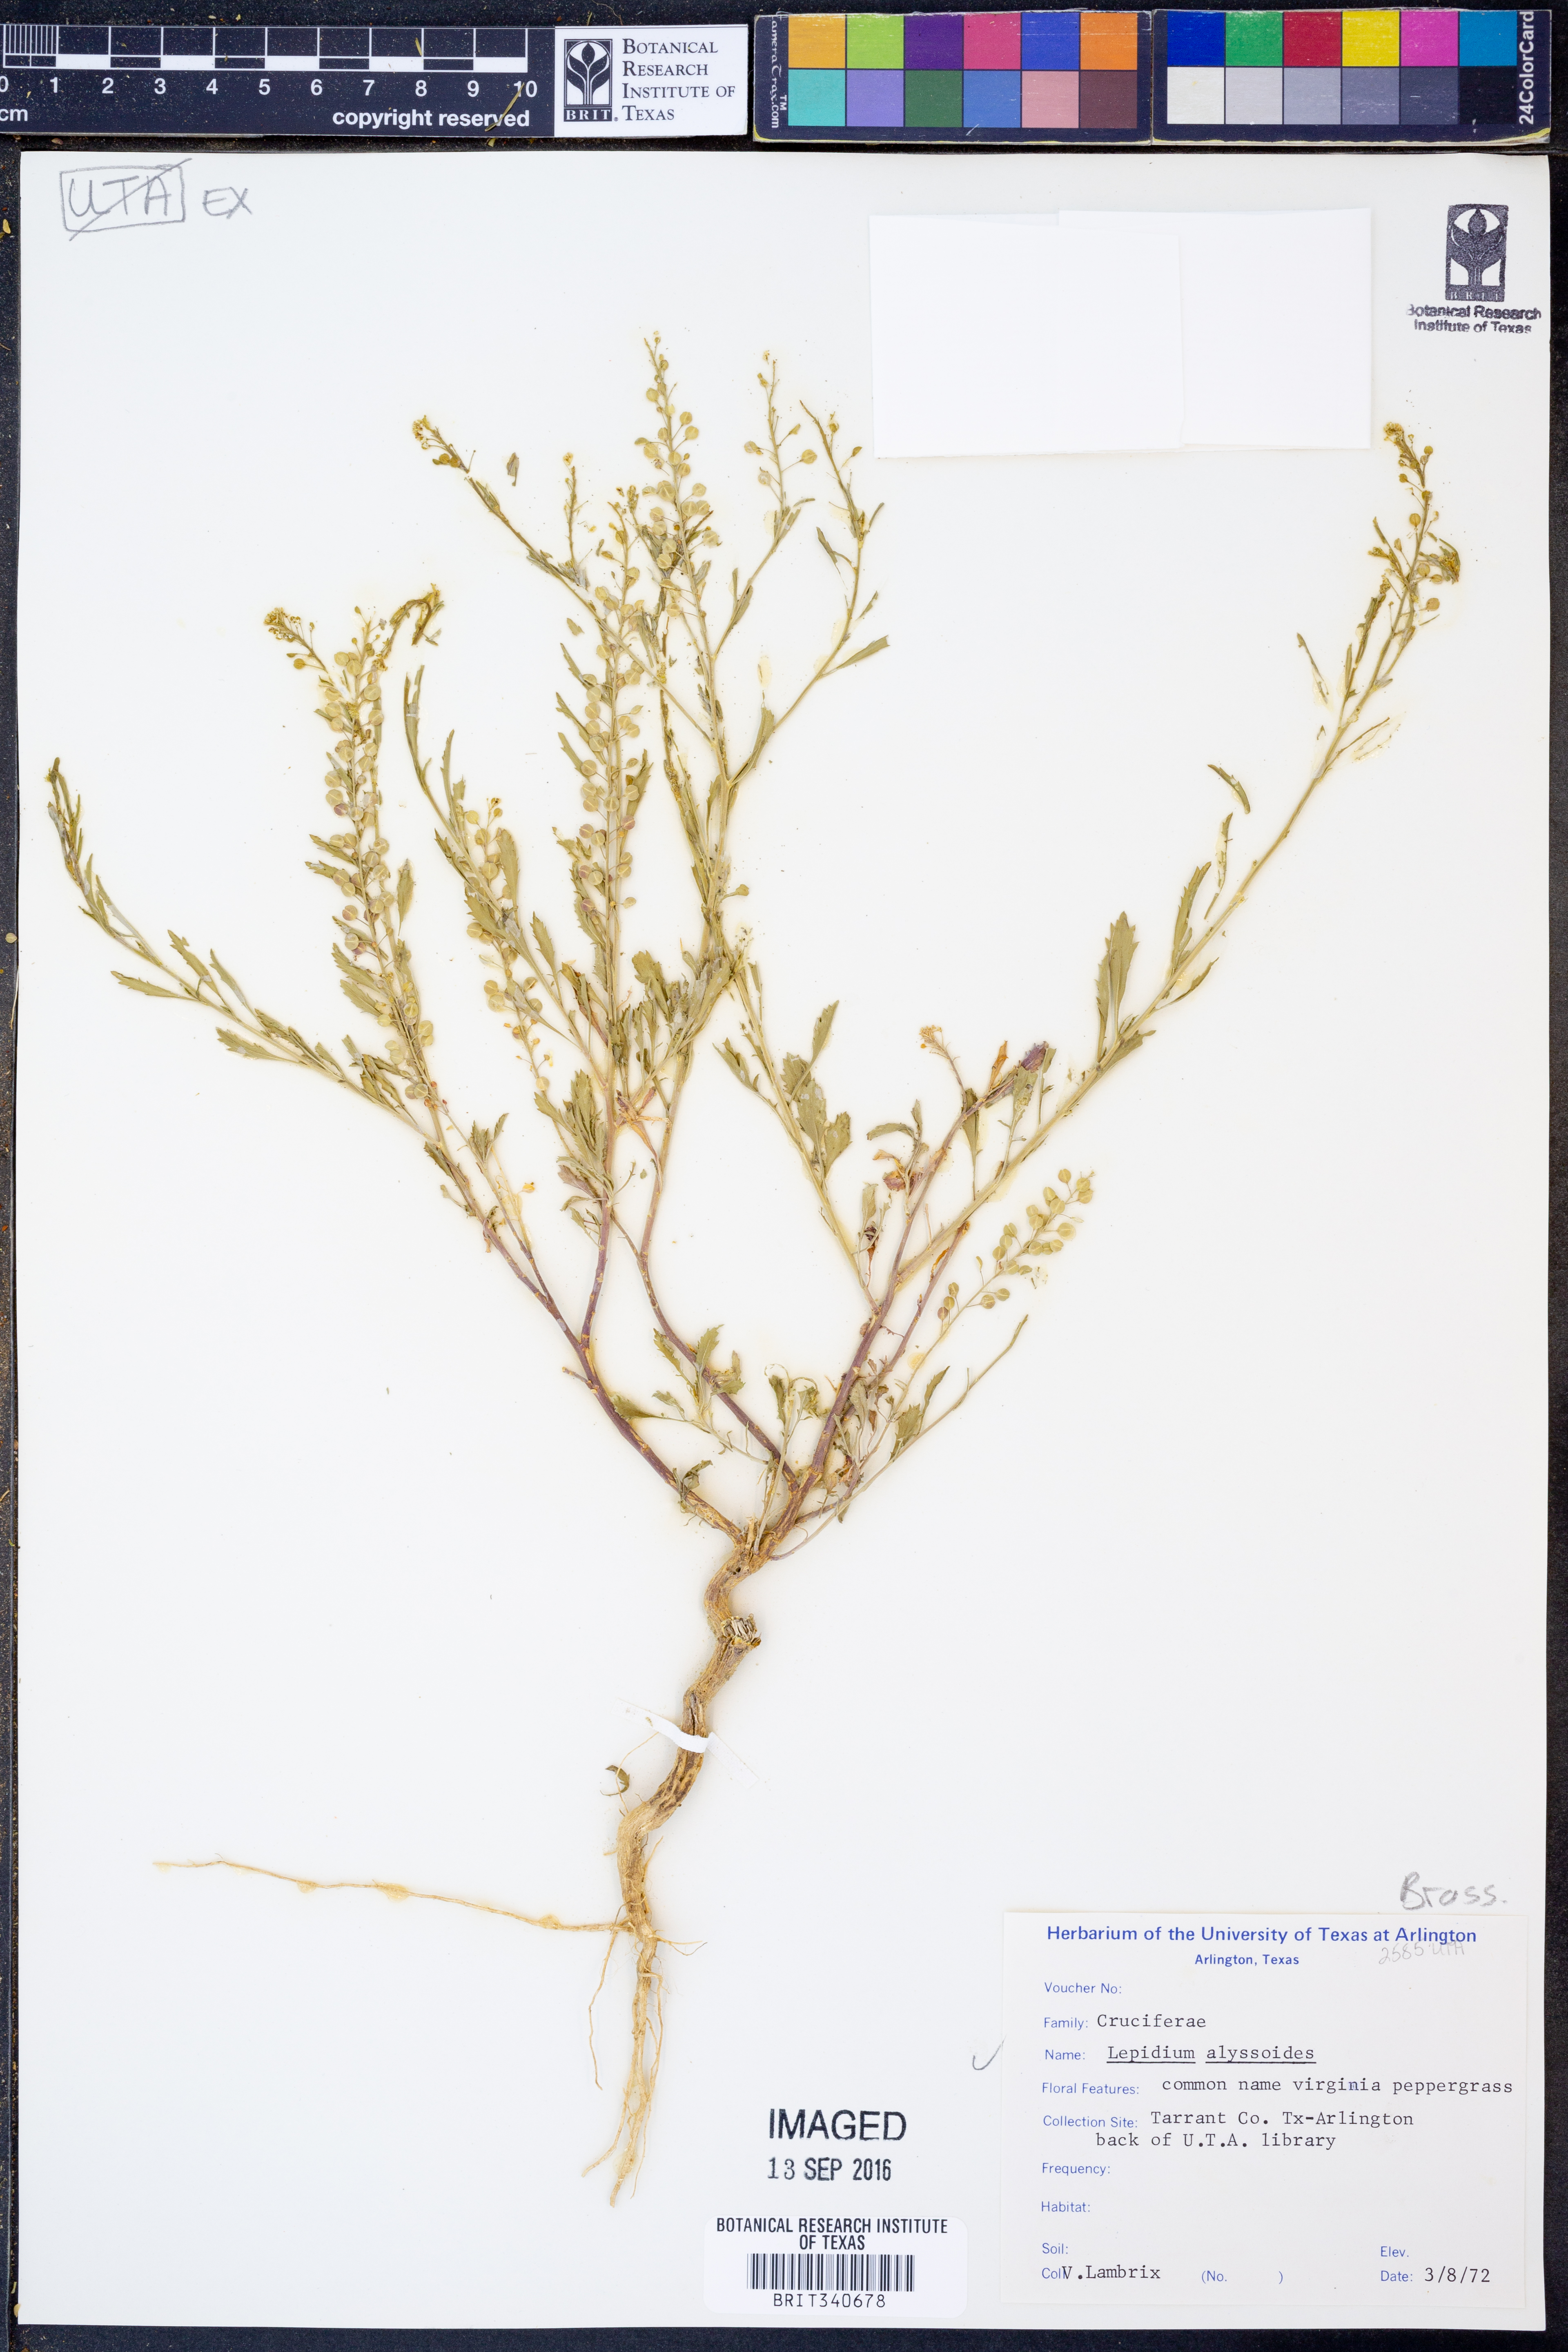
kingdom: Plantae
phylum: Tracheophyta
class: Magnoliopsida
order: Brassicales
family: Brassicaceae
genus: Lepidium
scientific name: Lepidium alyssoides
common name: Mesa pepperweed
